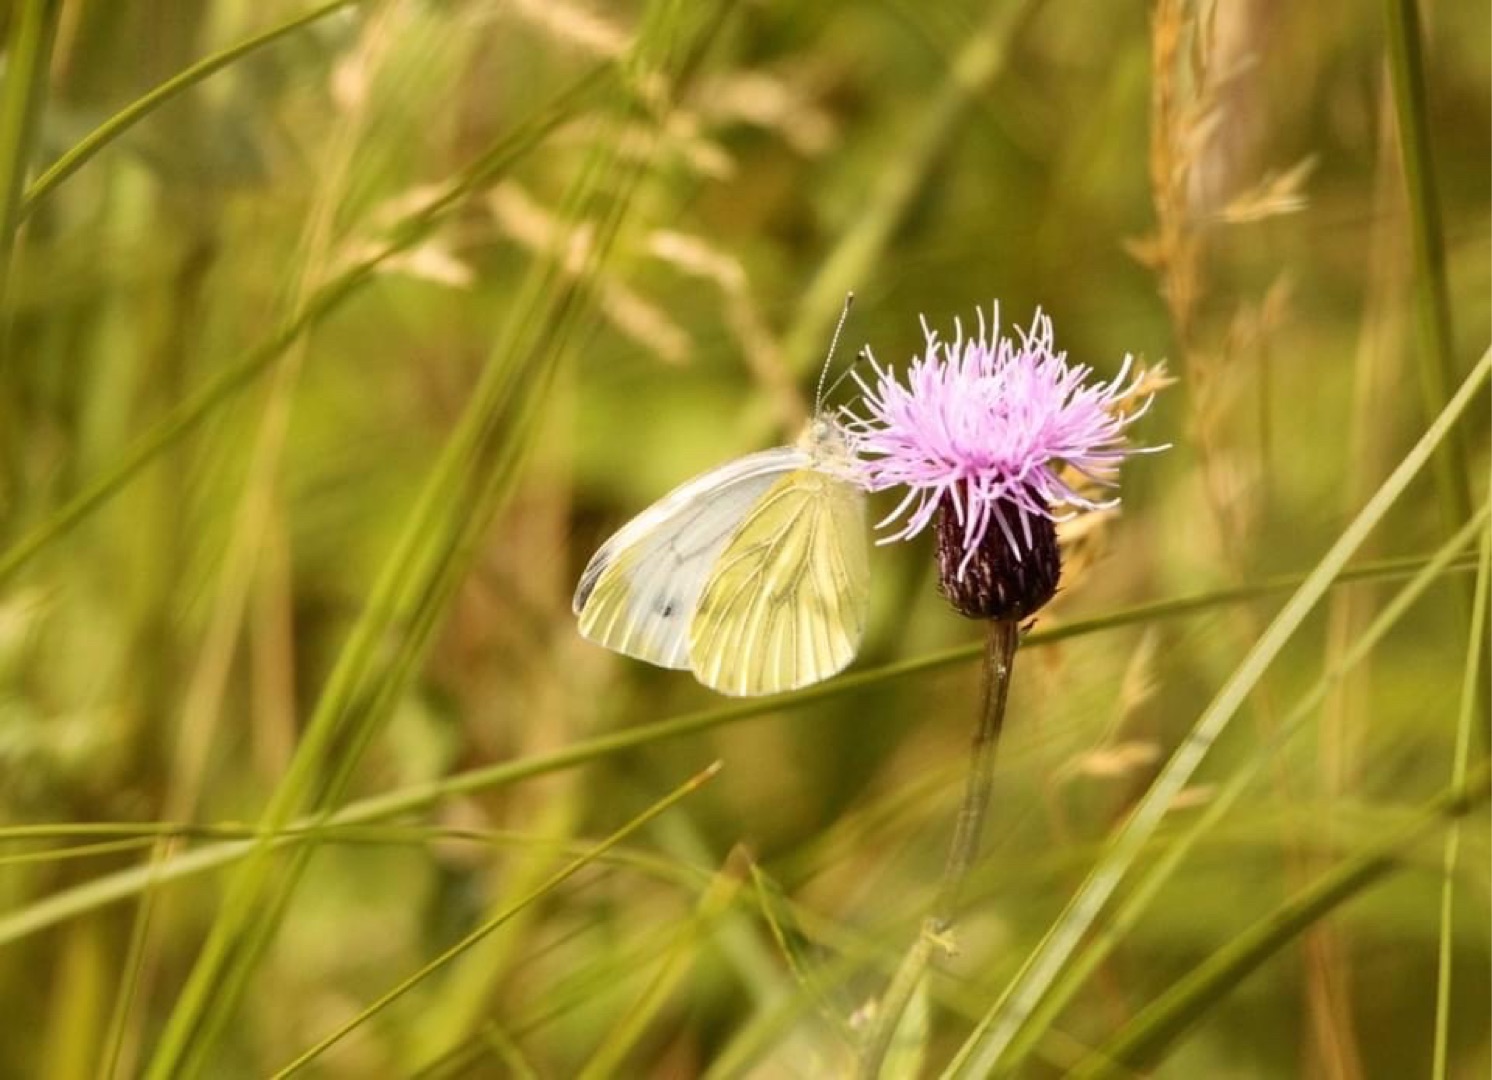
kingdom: Animalia
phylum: Arthropoda
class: Insecta
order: Lepidoptera
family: Pieridae
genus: Pieris
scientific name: Pieris napi
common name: Grønåret kålsommerfugl
